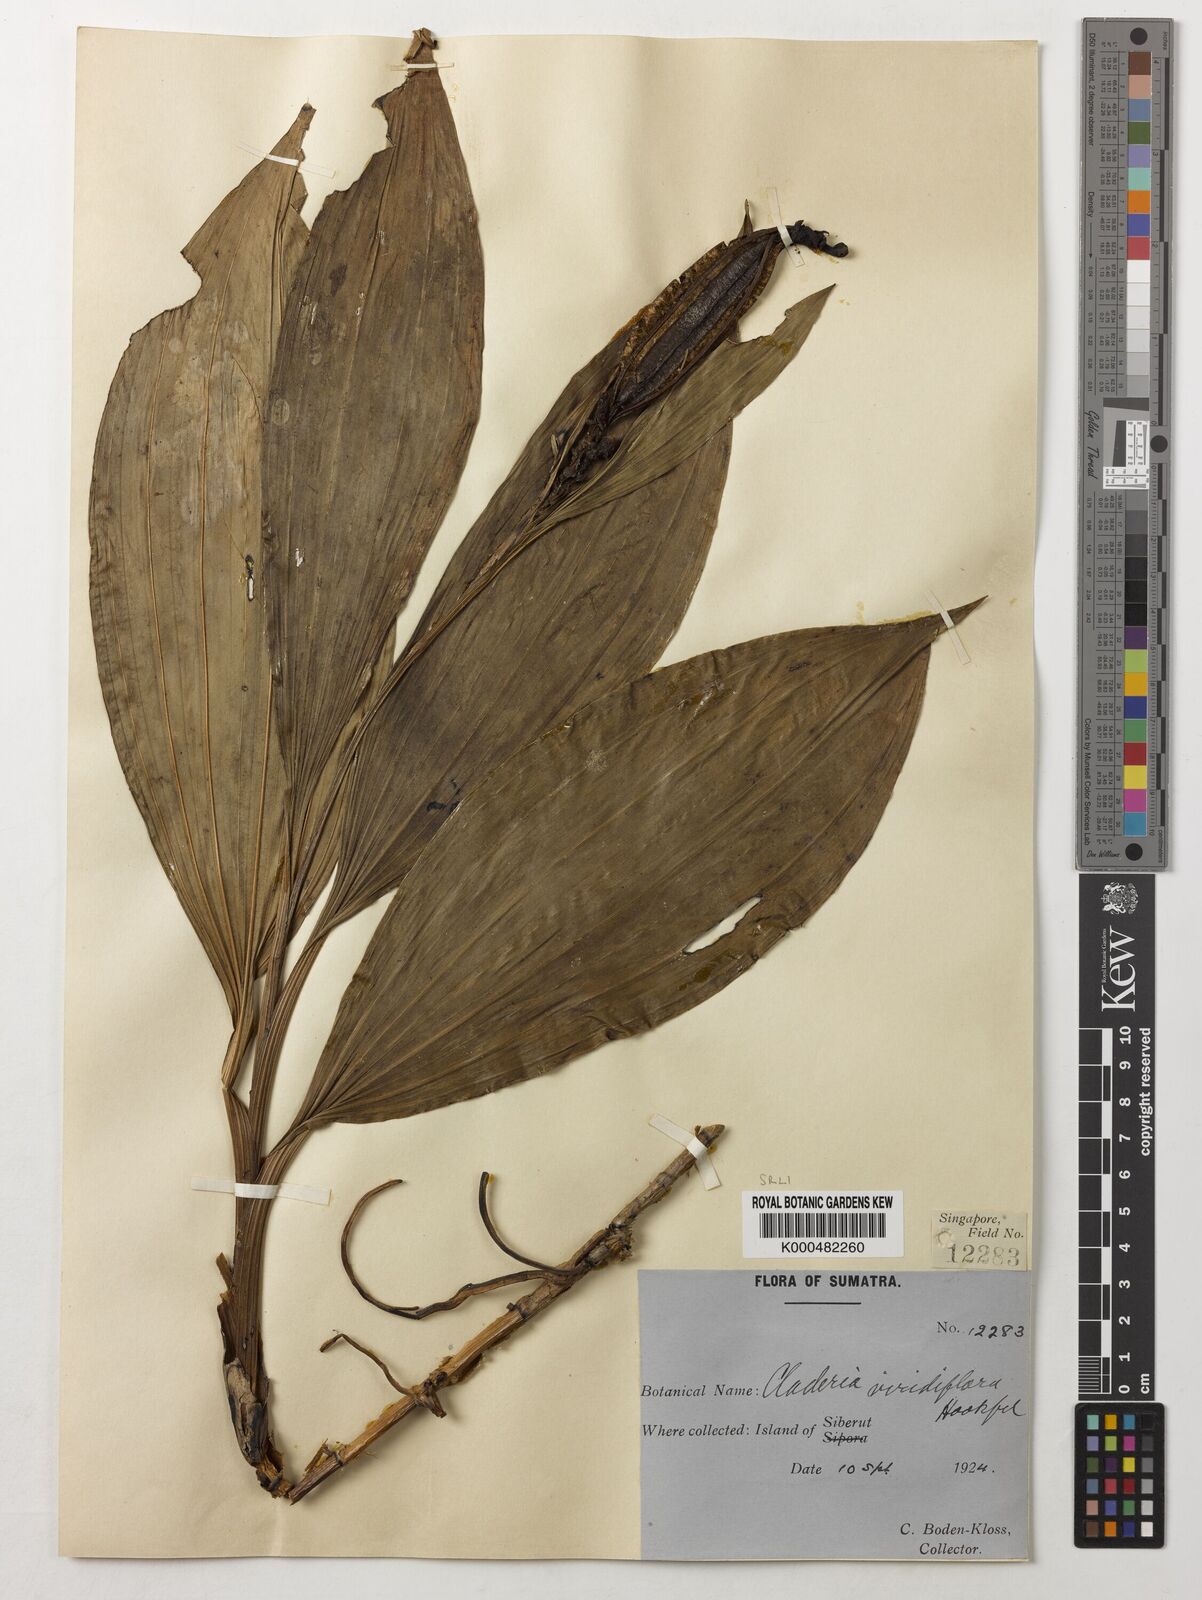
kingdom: Plantae
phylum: Tracheophyta
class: Liliopsida
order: Asparagales
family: Orchidaceae
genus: Claderia
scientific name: Claderia
